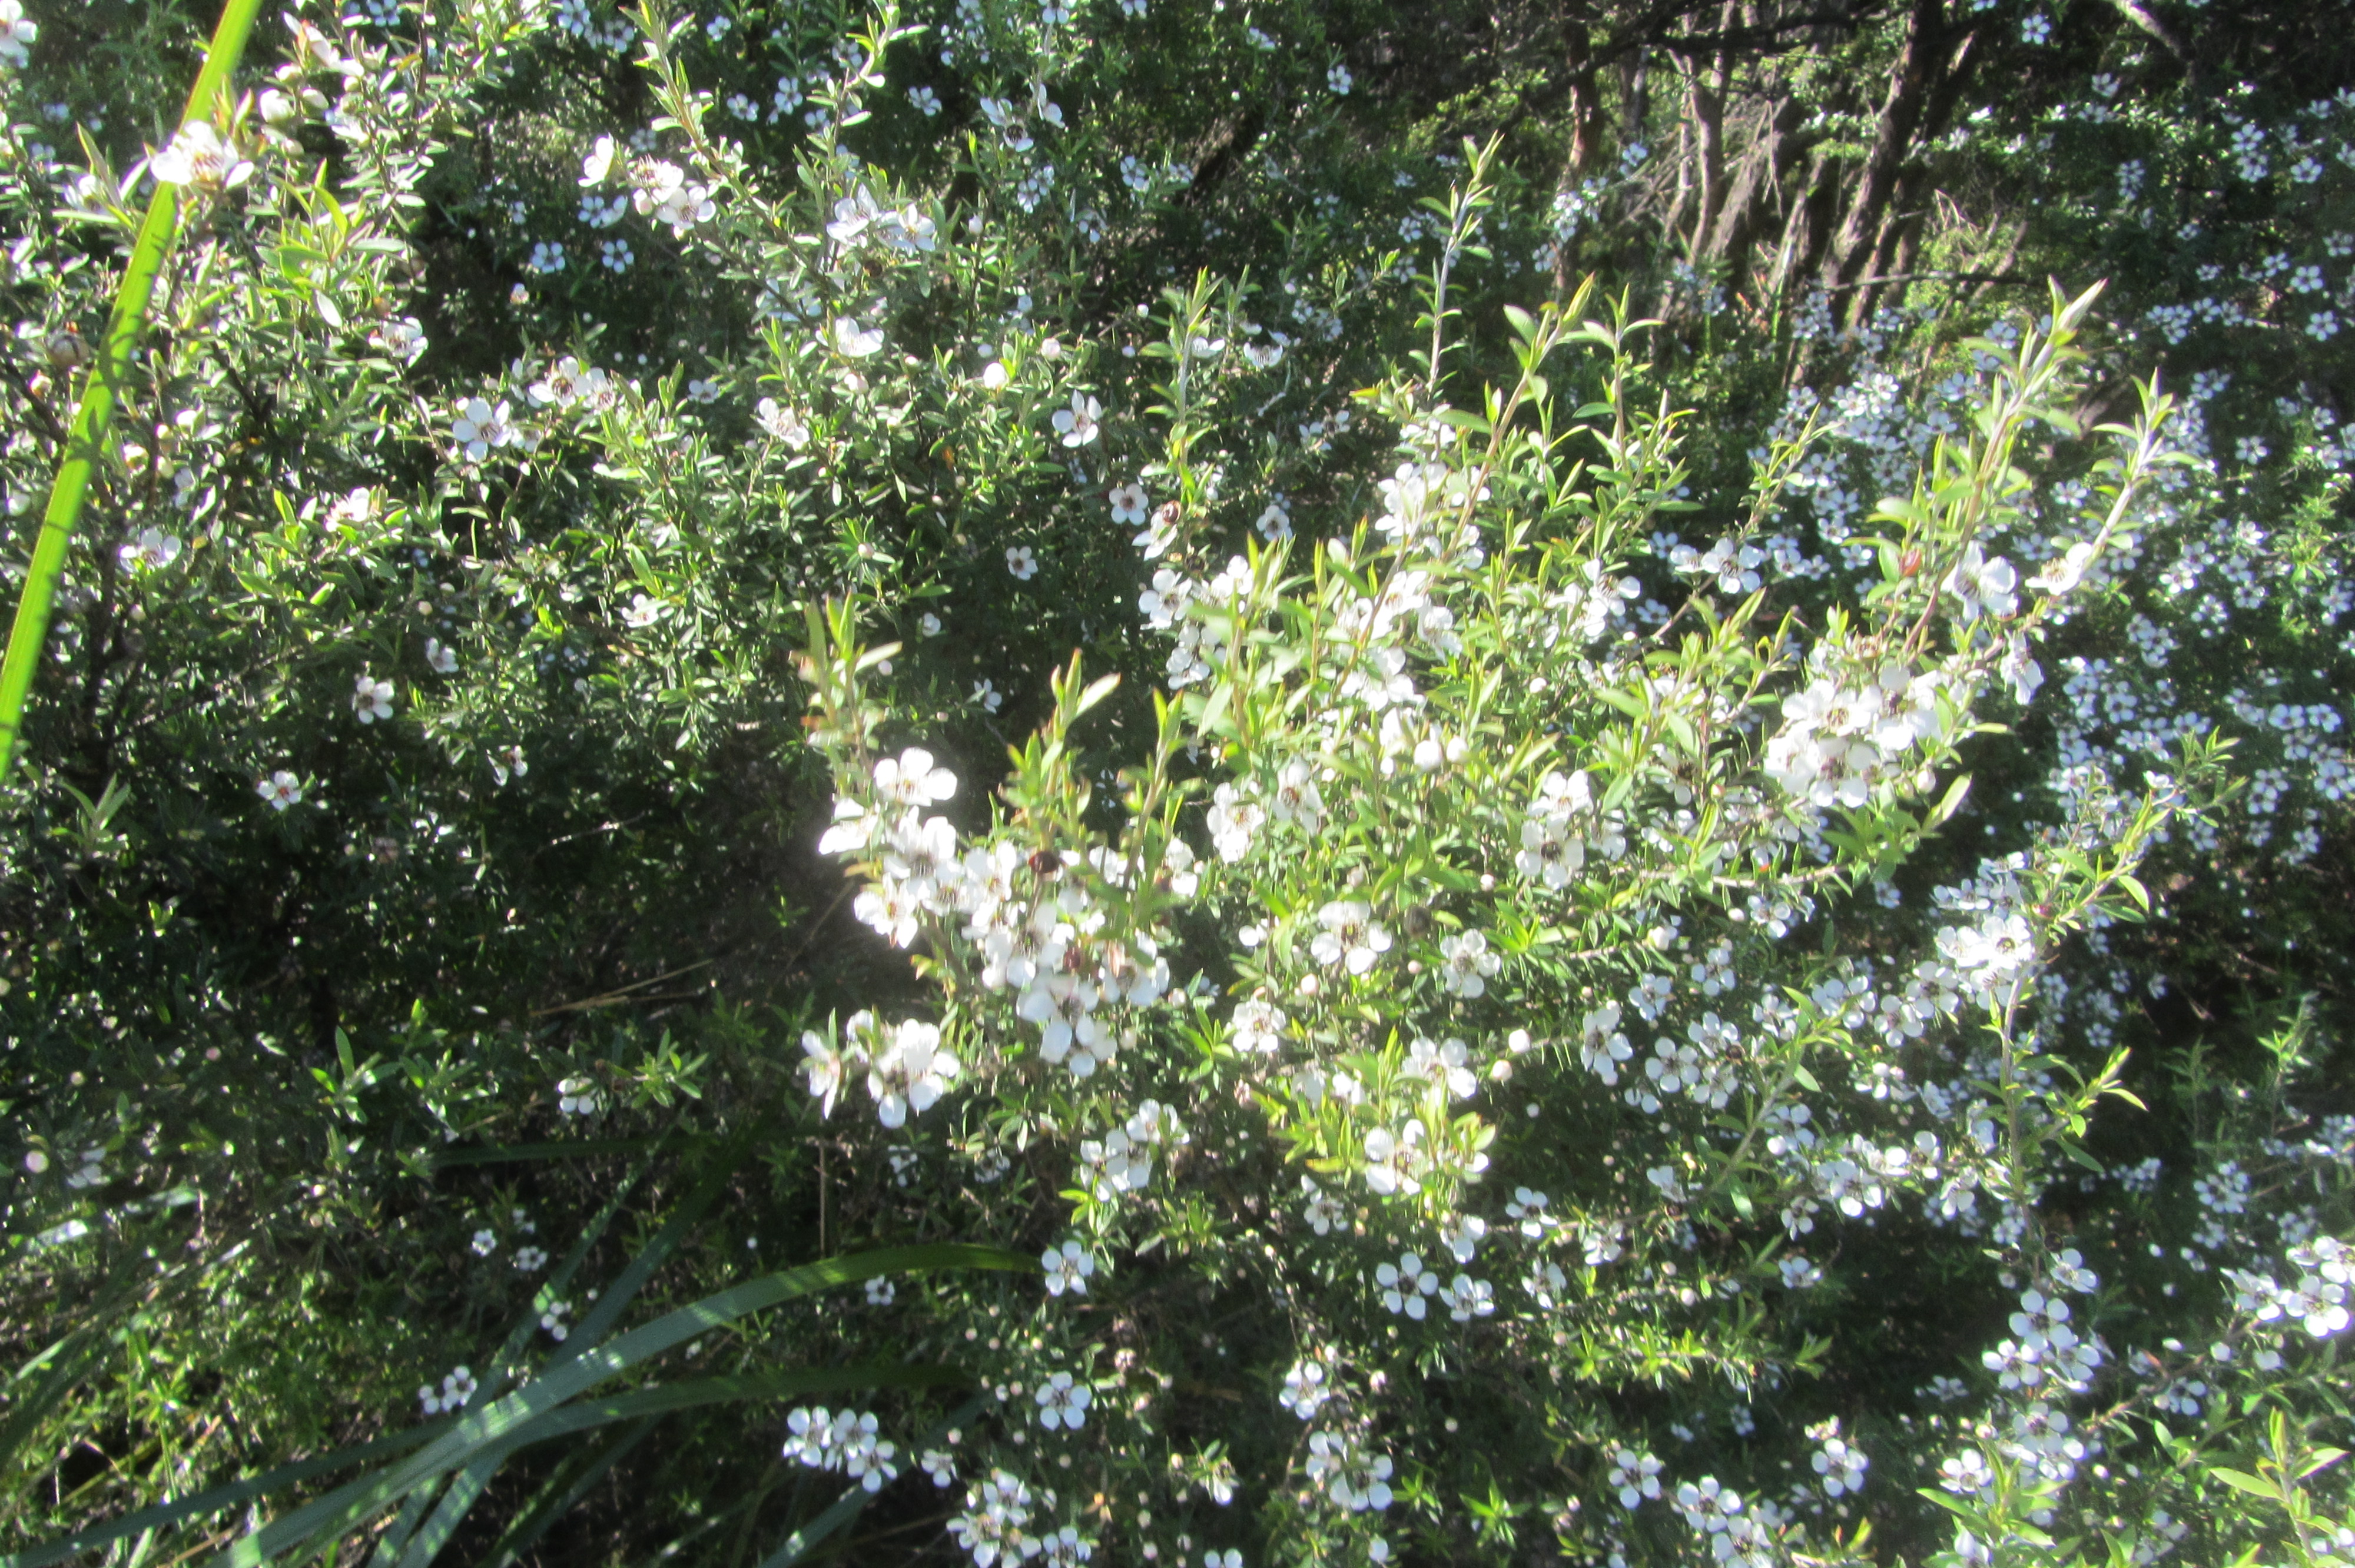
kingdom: Plantae
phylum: Tracheophyta
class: Magnoliopsida
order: Myrtales
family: Myrtaceae
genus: Leptospermum
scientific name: Leptospermum scoparium
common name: Broom tea-tree
